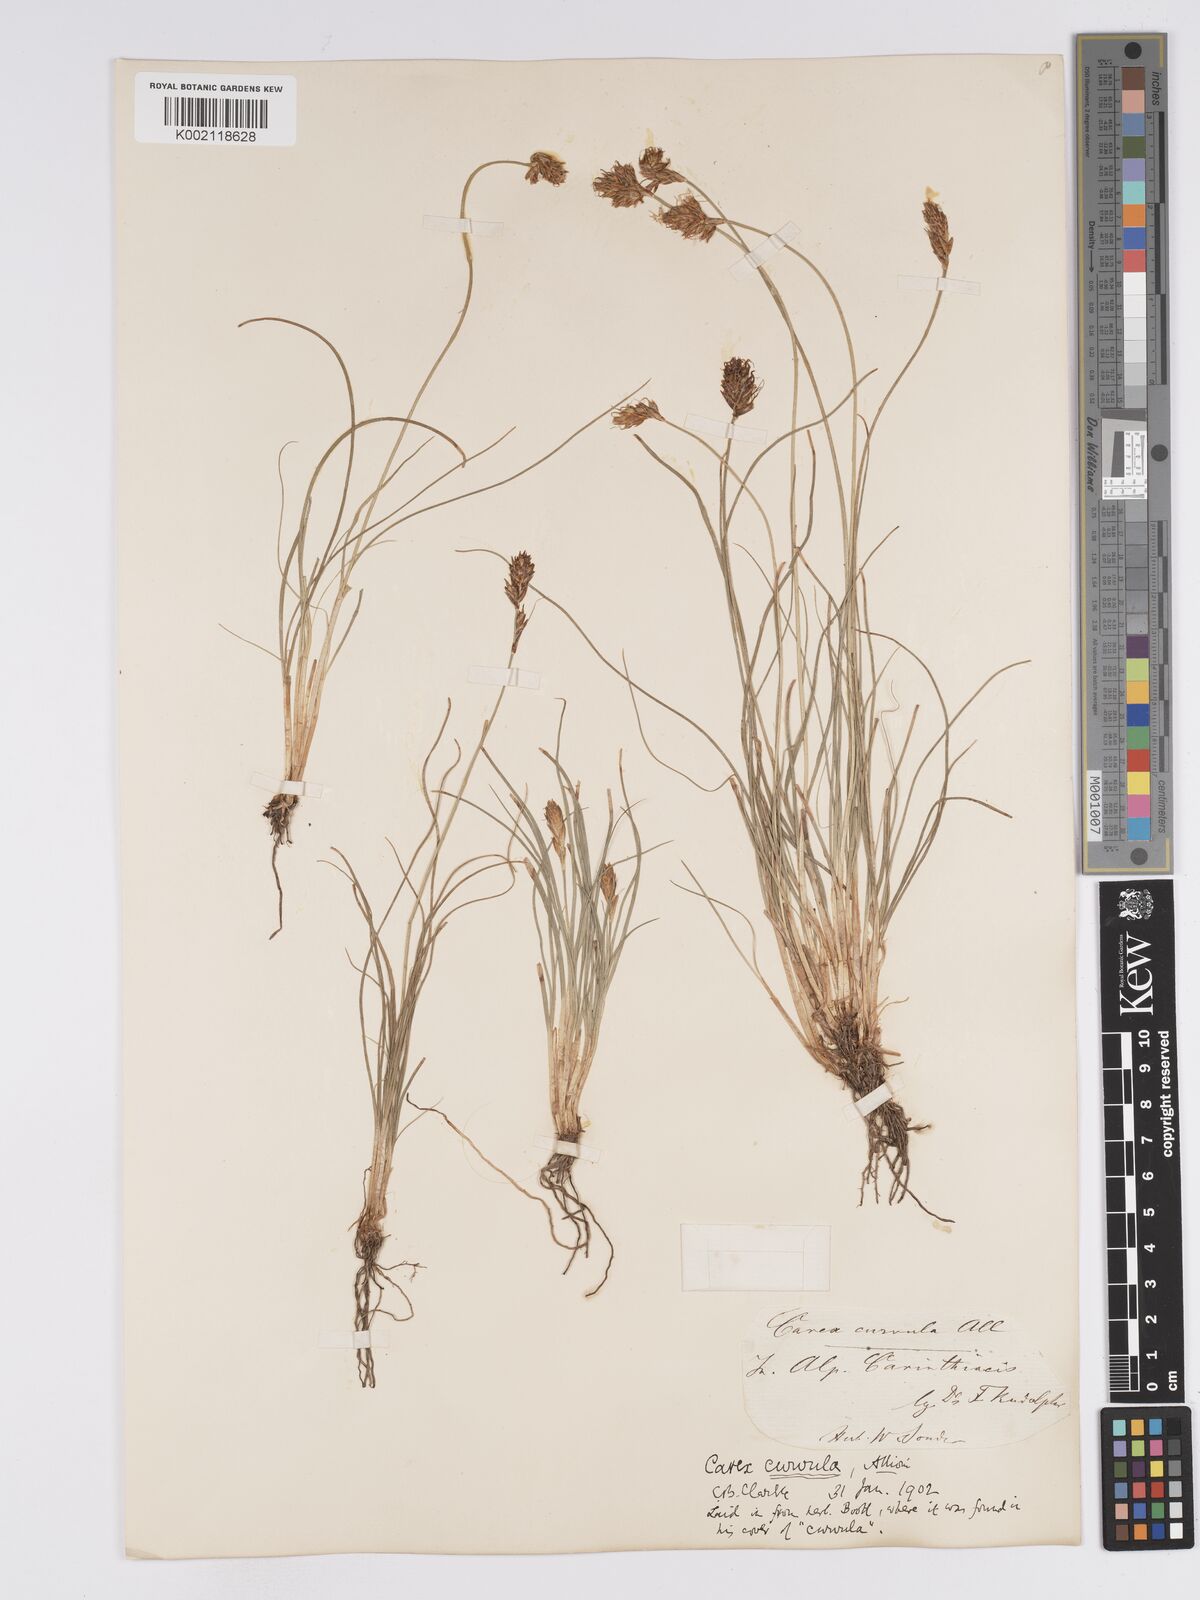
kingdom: Plantae
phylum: Tracheophyta
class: Liliopsida
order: Poales
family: Cyperaceae
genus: Carex
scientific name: Carex curvula
